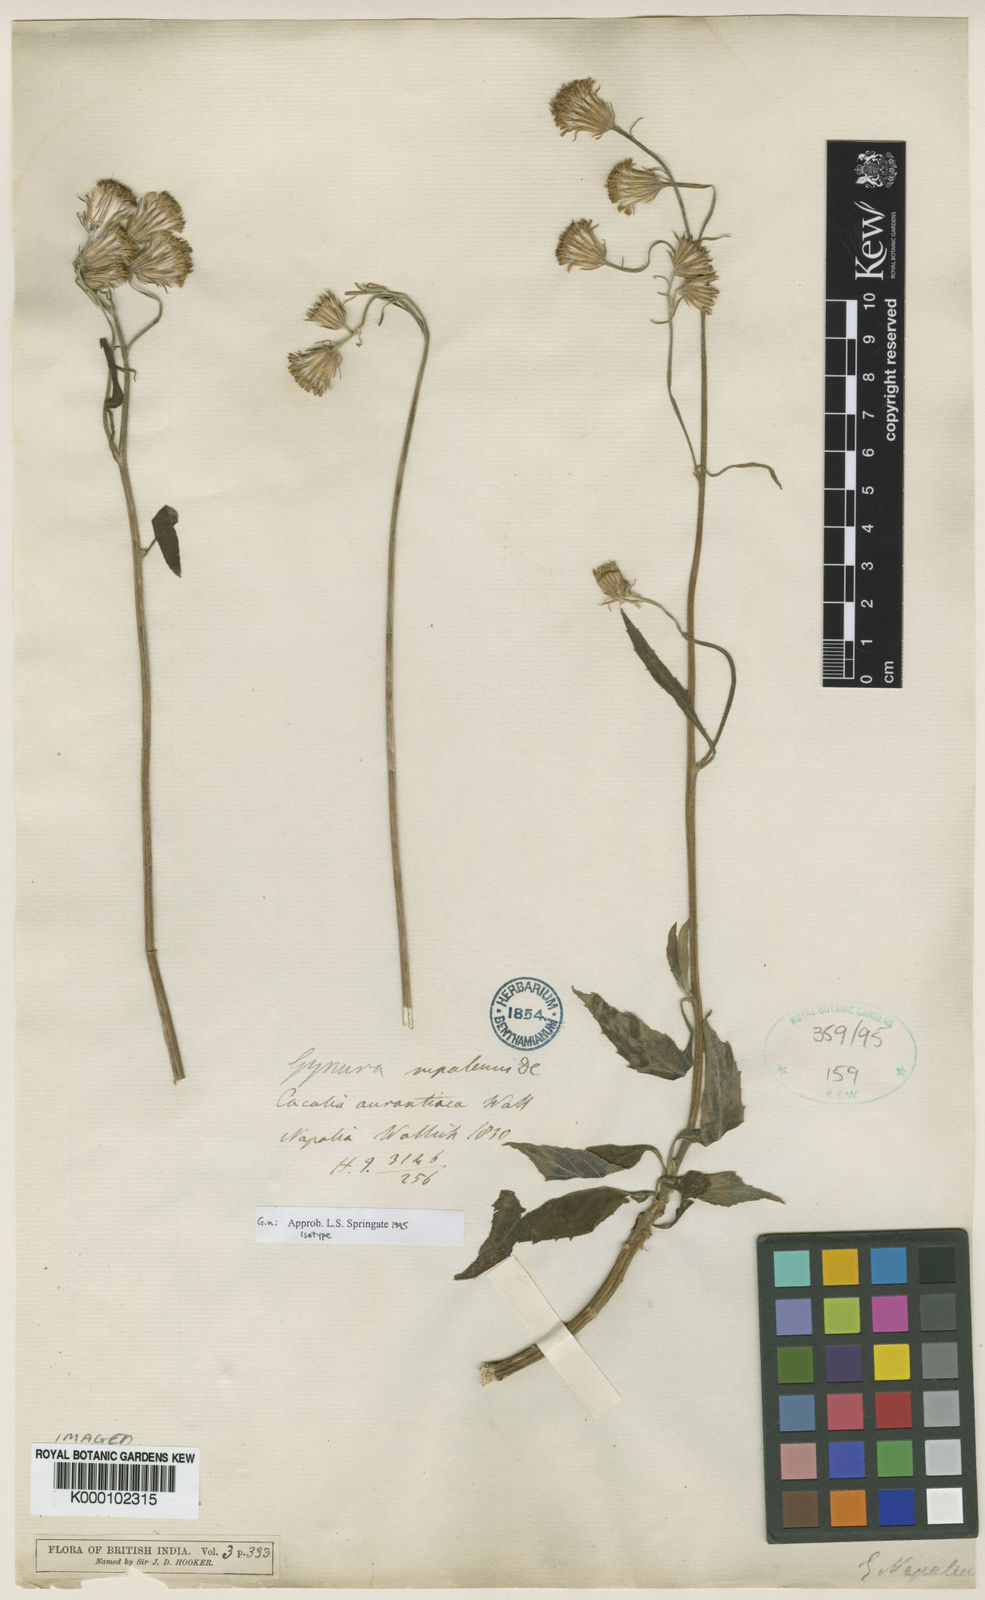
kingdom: Plantae
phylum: Tracheophyta
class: Magnoliopsida
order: Asterales
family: Asteraceae
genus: Gynura
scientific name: Gynura
